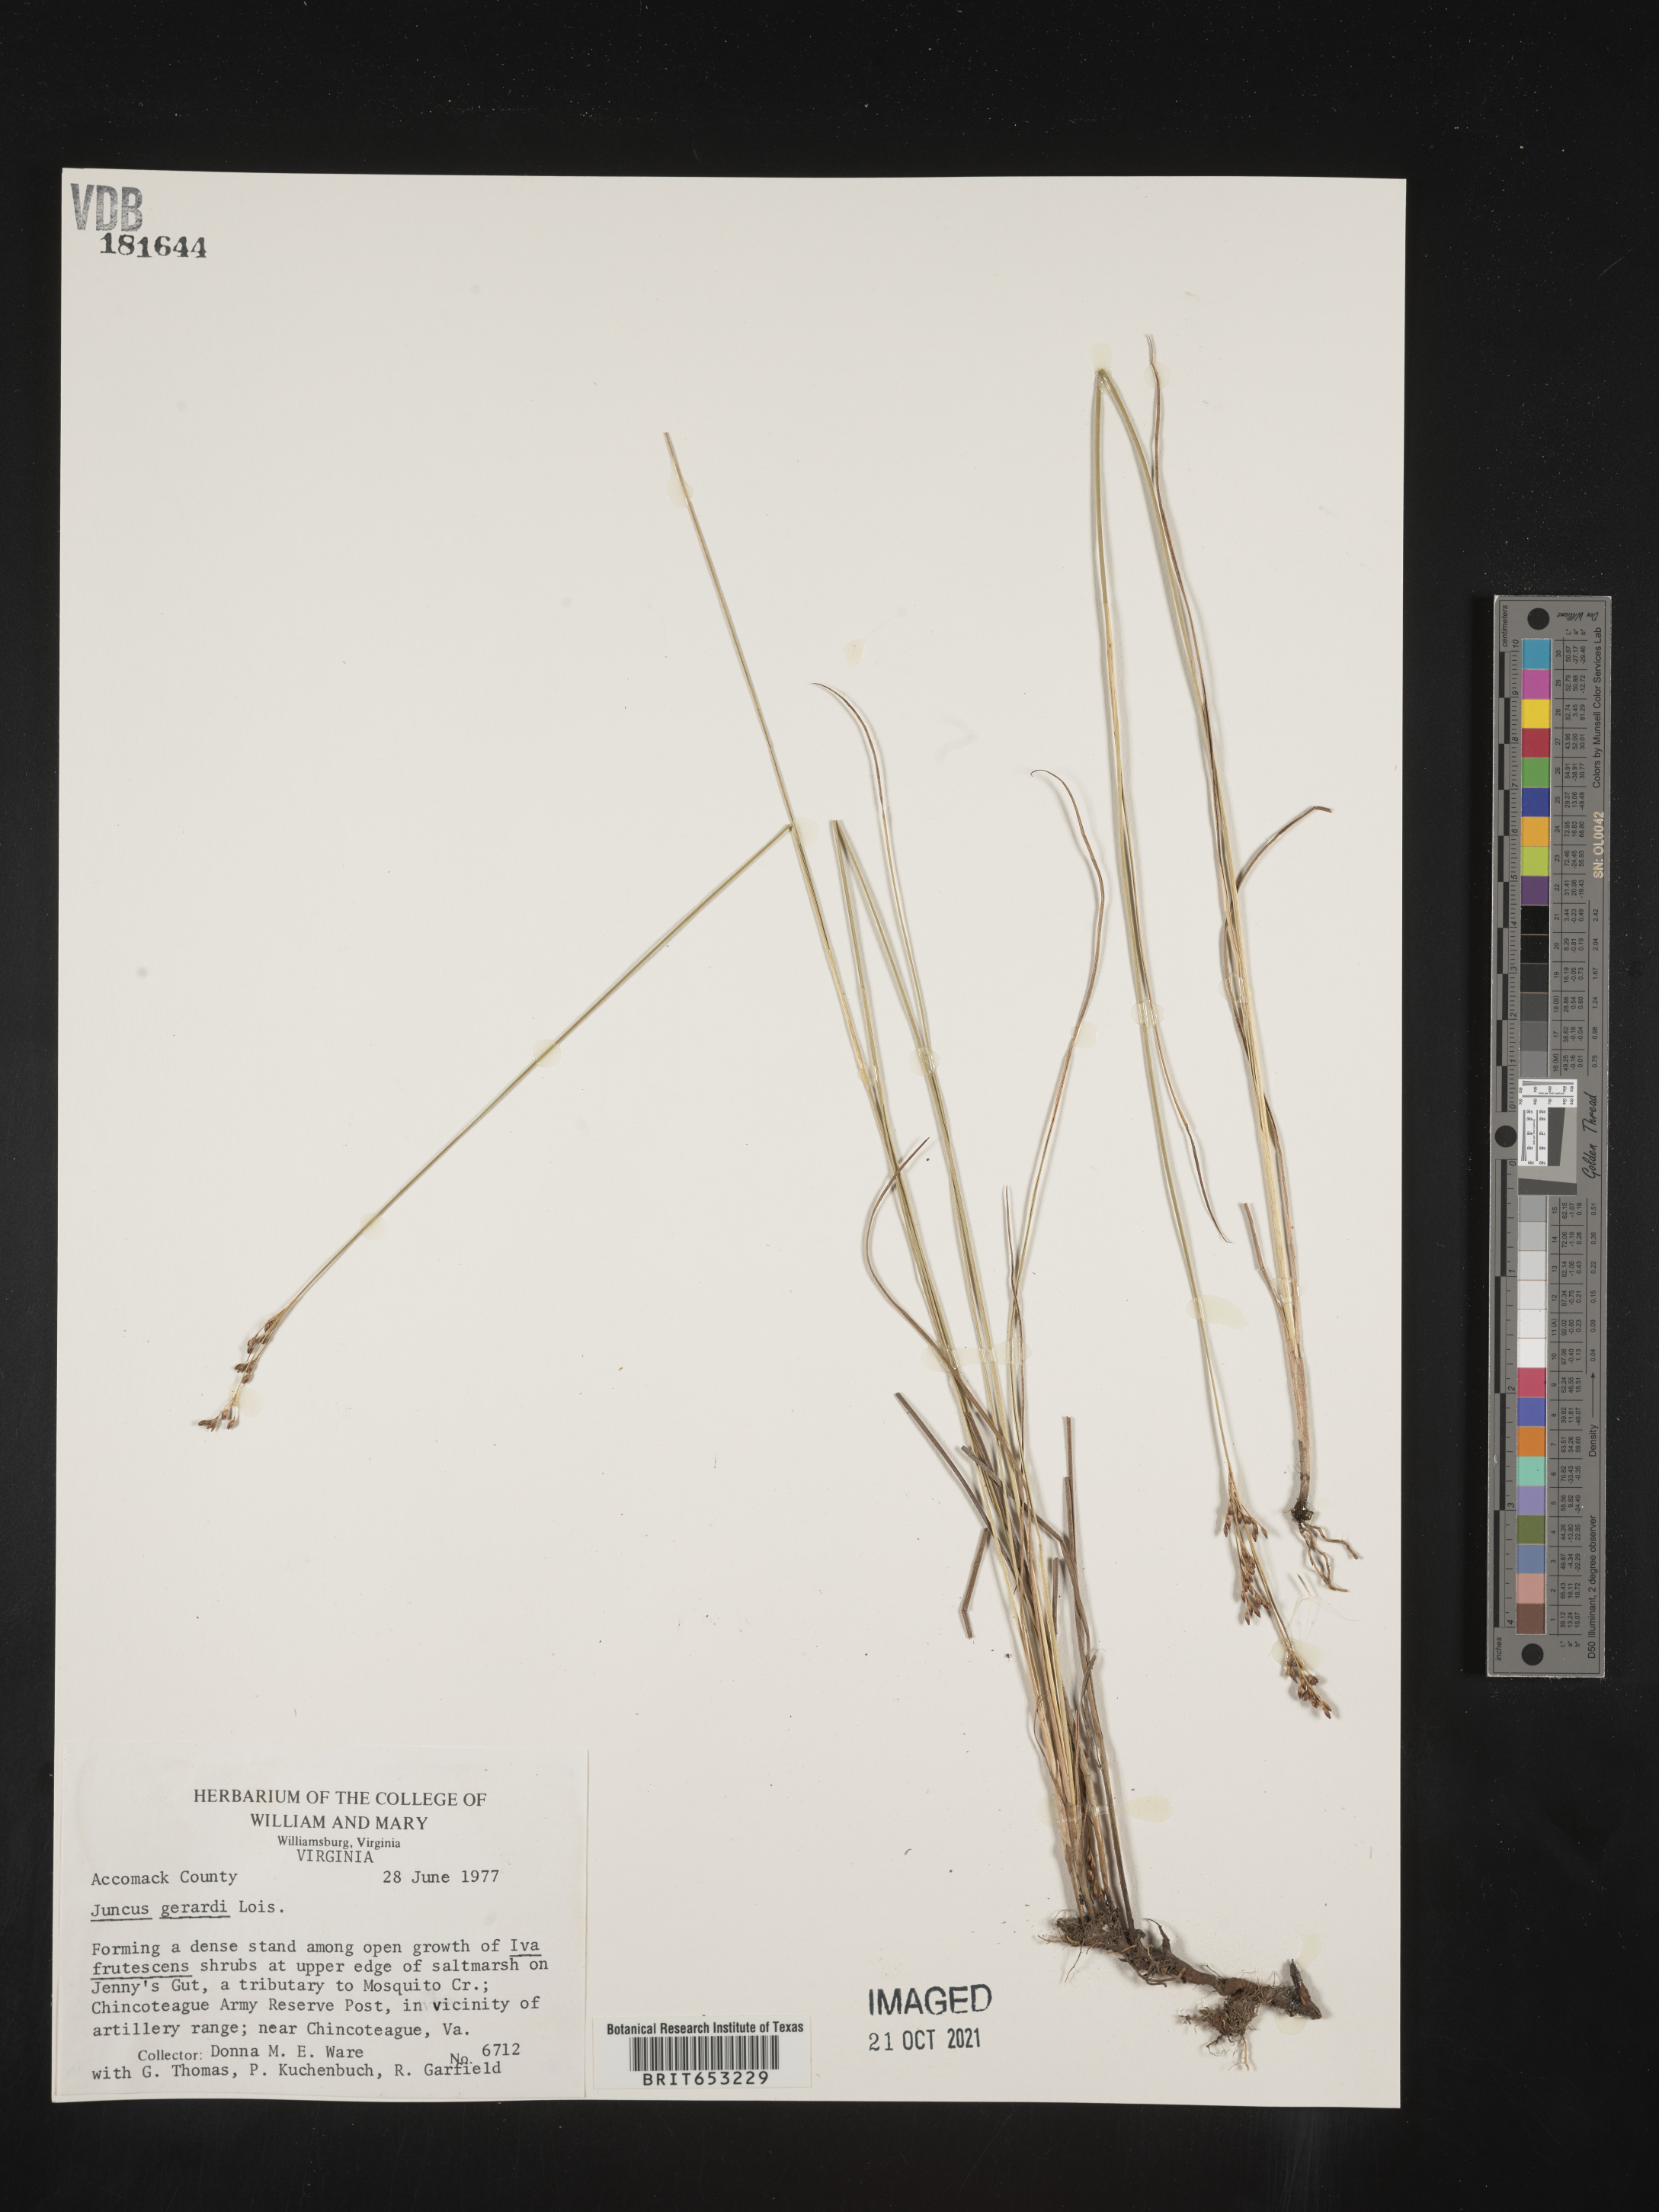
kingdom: Plantae
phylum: Tracheophyta
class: Liliopsida
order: Poales
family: Juncaceae
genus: Juncus
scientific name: Juncus gerardi
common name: Saltmarsh rush
